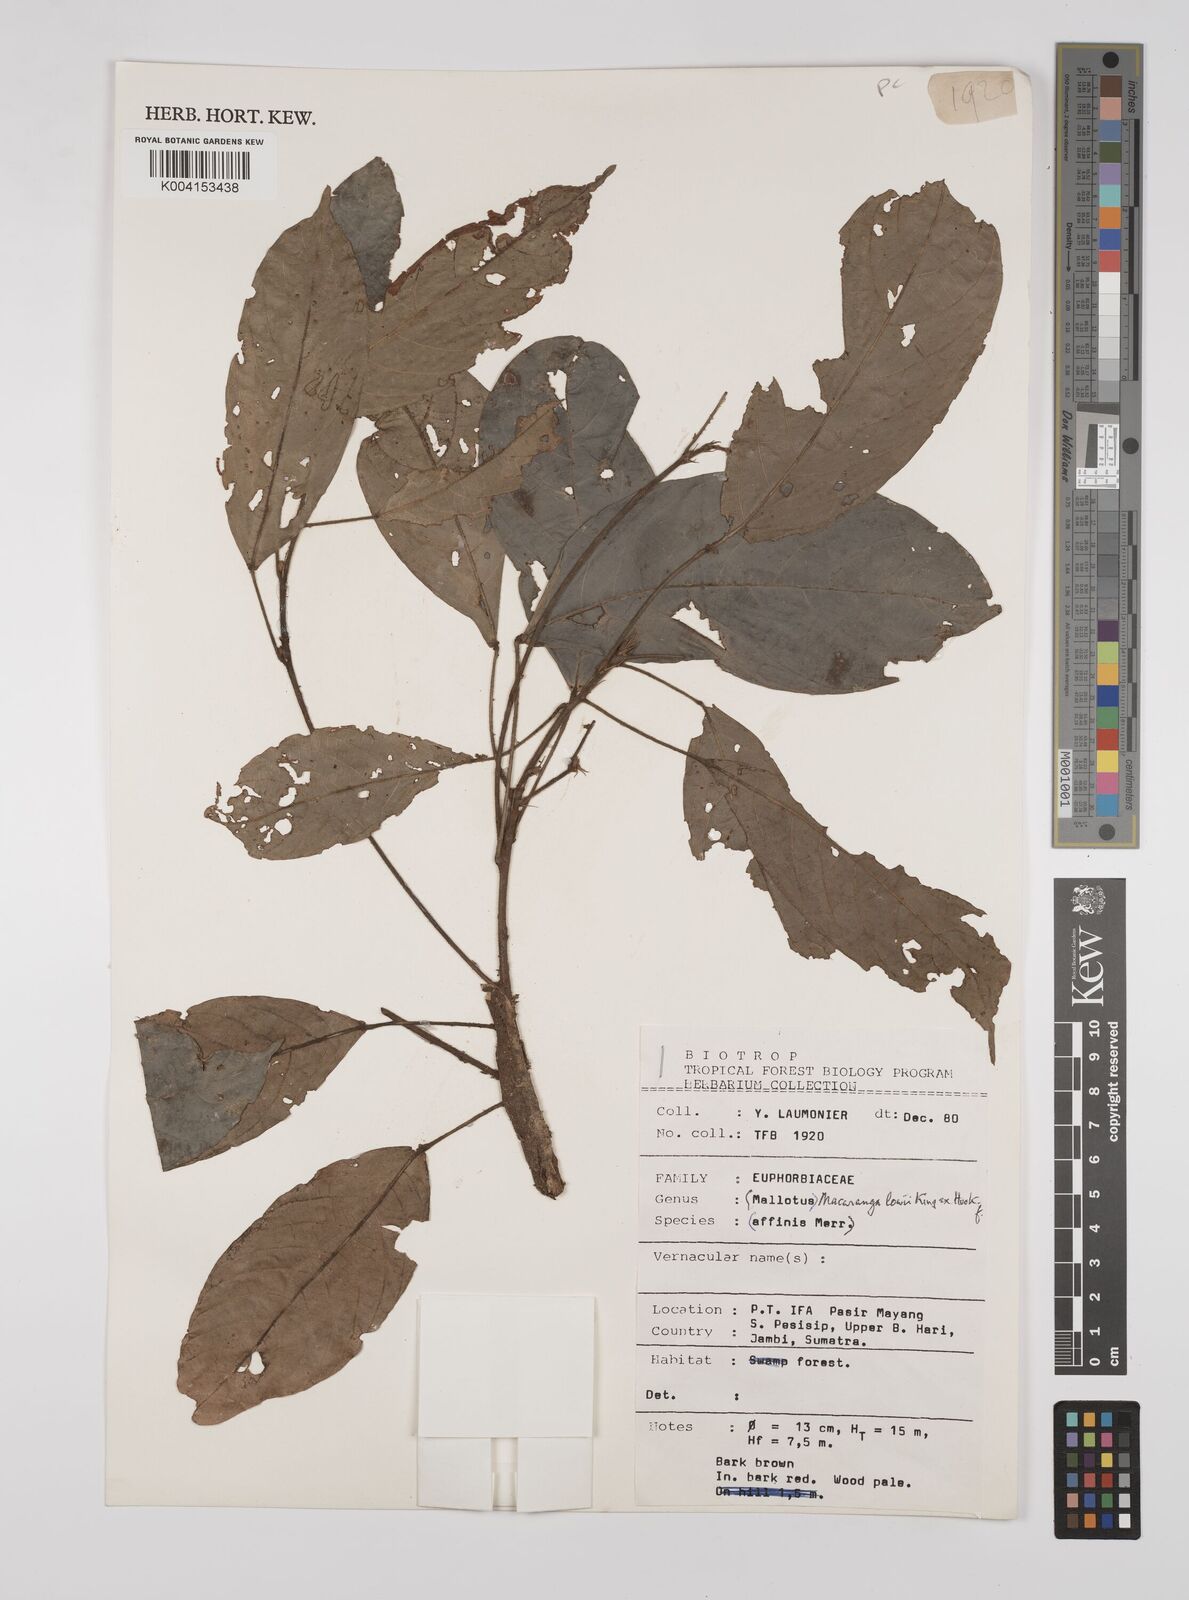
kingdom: Plantae
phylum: Tracheophyta
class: Magnoliopsida
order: Malpighiales
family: Euphorbiaceae
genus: Macaranga
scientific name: Macaranga lowii
